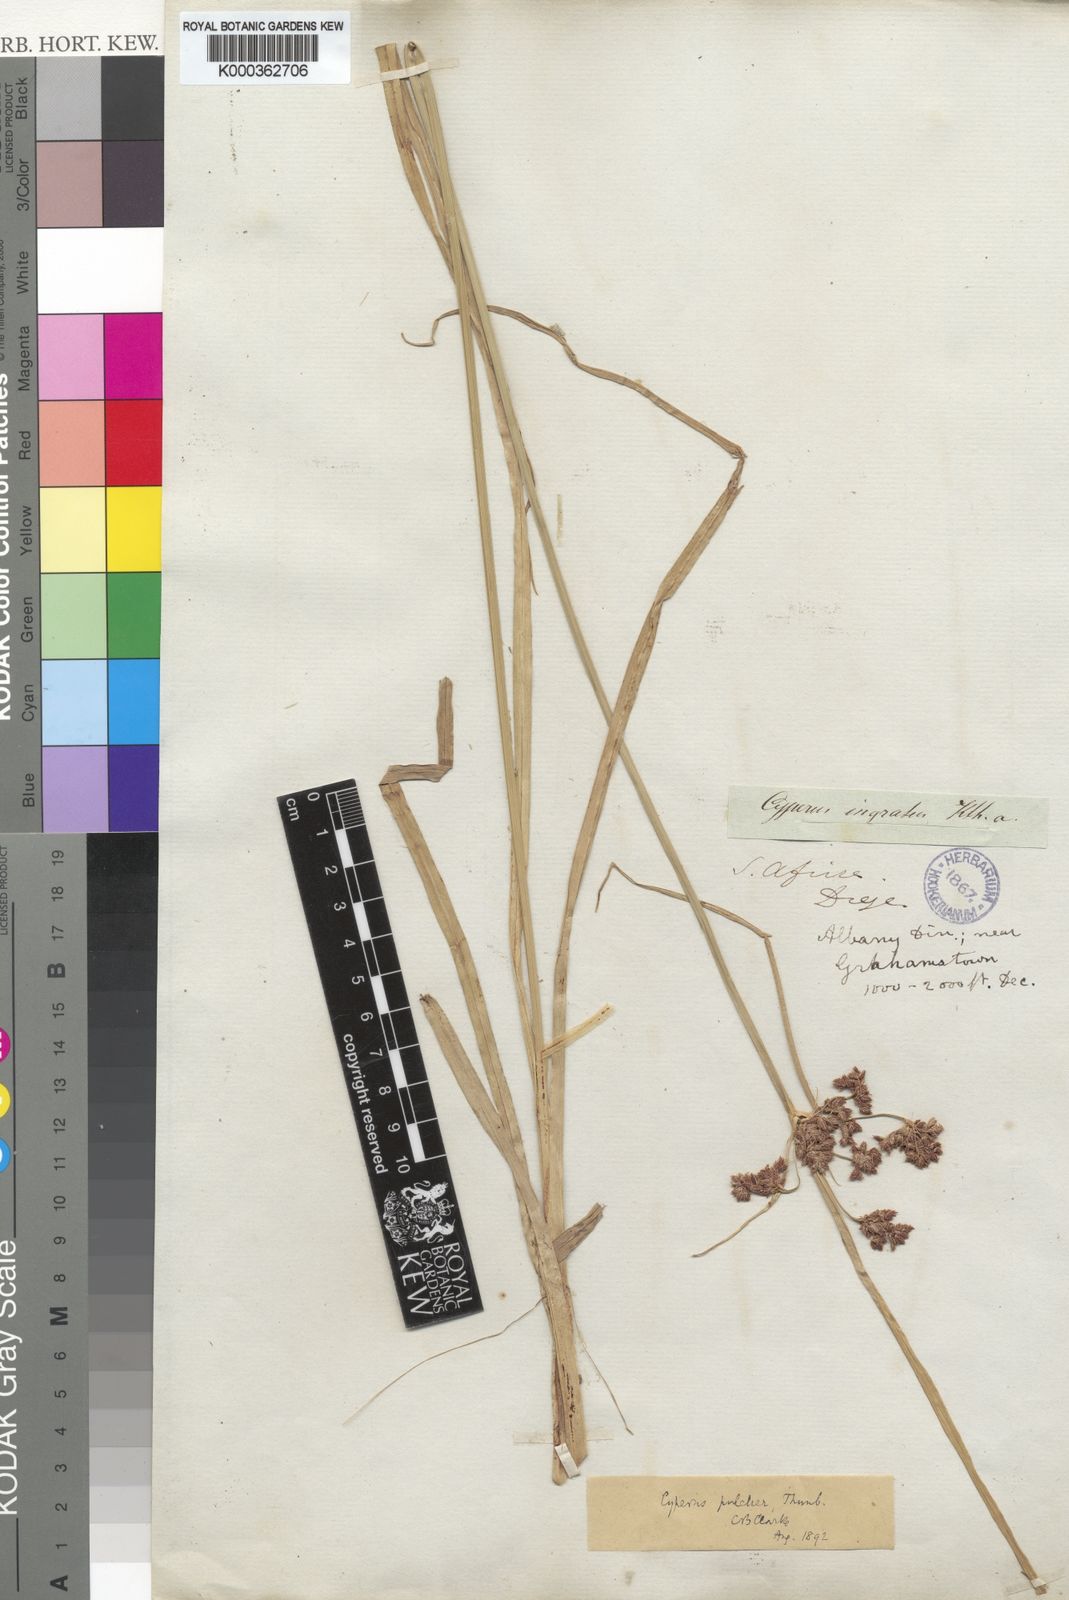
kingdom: Plantae
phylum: Tracheophyta
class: Liliopsida
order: Poales
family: Cyperaceae
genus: Cyperus
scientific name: Cyperus pulcher
